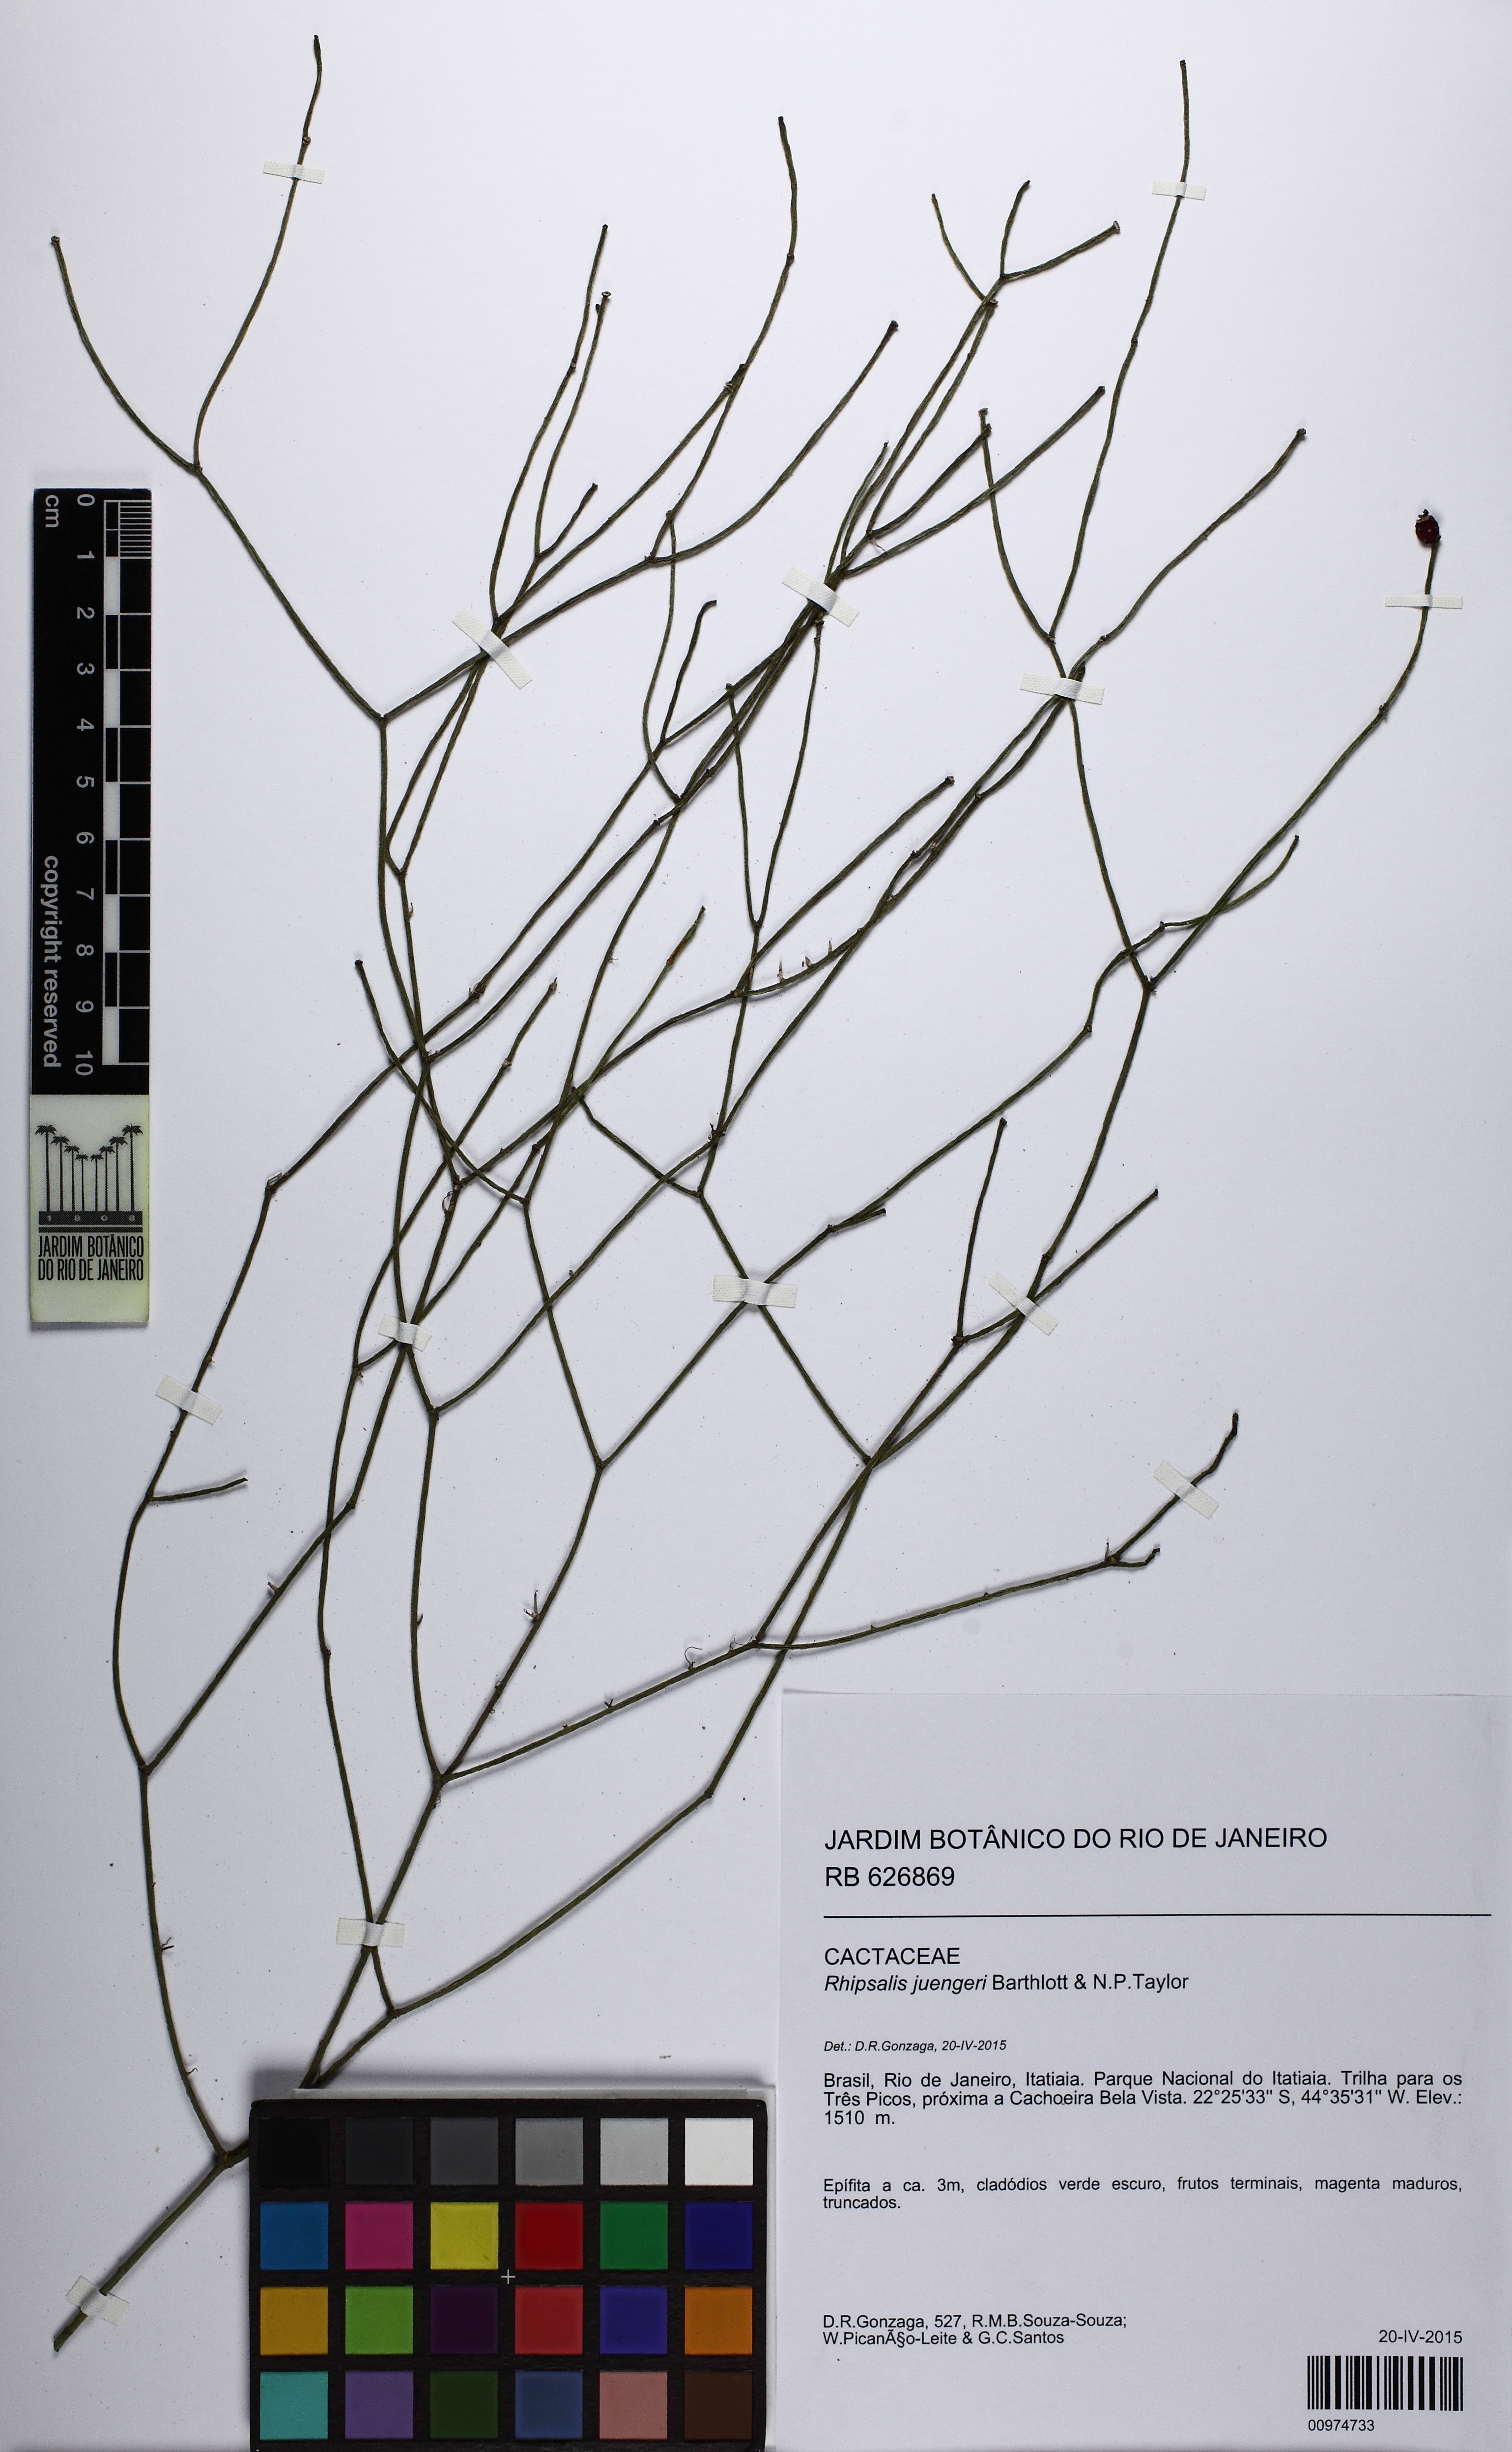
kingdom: Plantae
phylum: Tracheophyta
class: Magnoliopsida
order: Caryophyllales
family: Cactaceae
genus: Rhipsalis
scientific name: Rhipsalis juengeri
